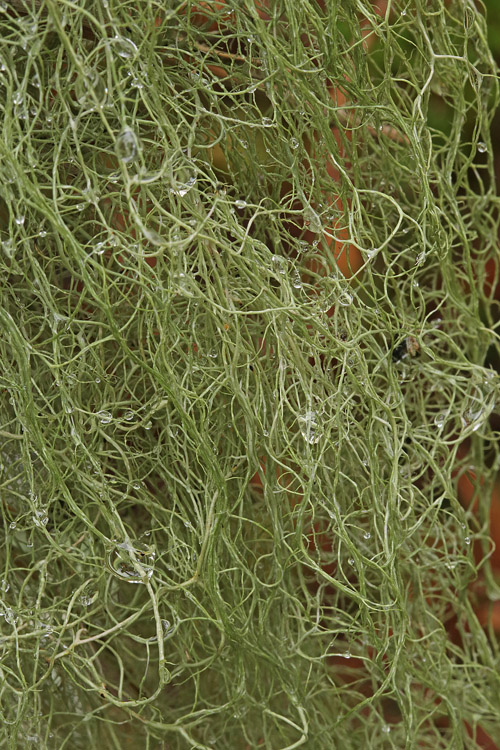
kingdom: Fungi
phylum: Ascomycota
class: Lecanoromycetes
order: Lecanorales
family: Parmeliaceae
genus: Bryoria
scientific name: Bryoria capillaris
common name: grå mankelav
